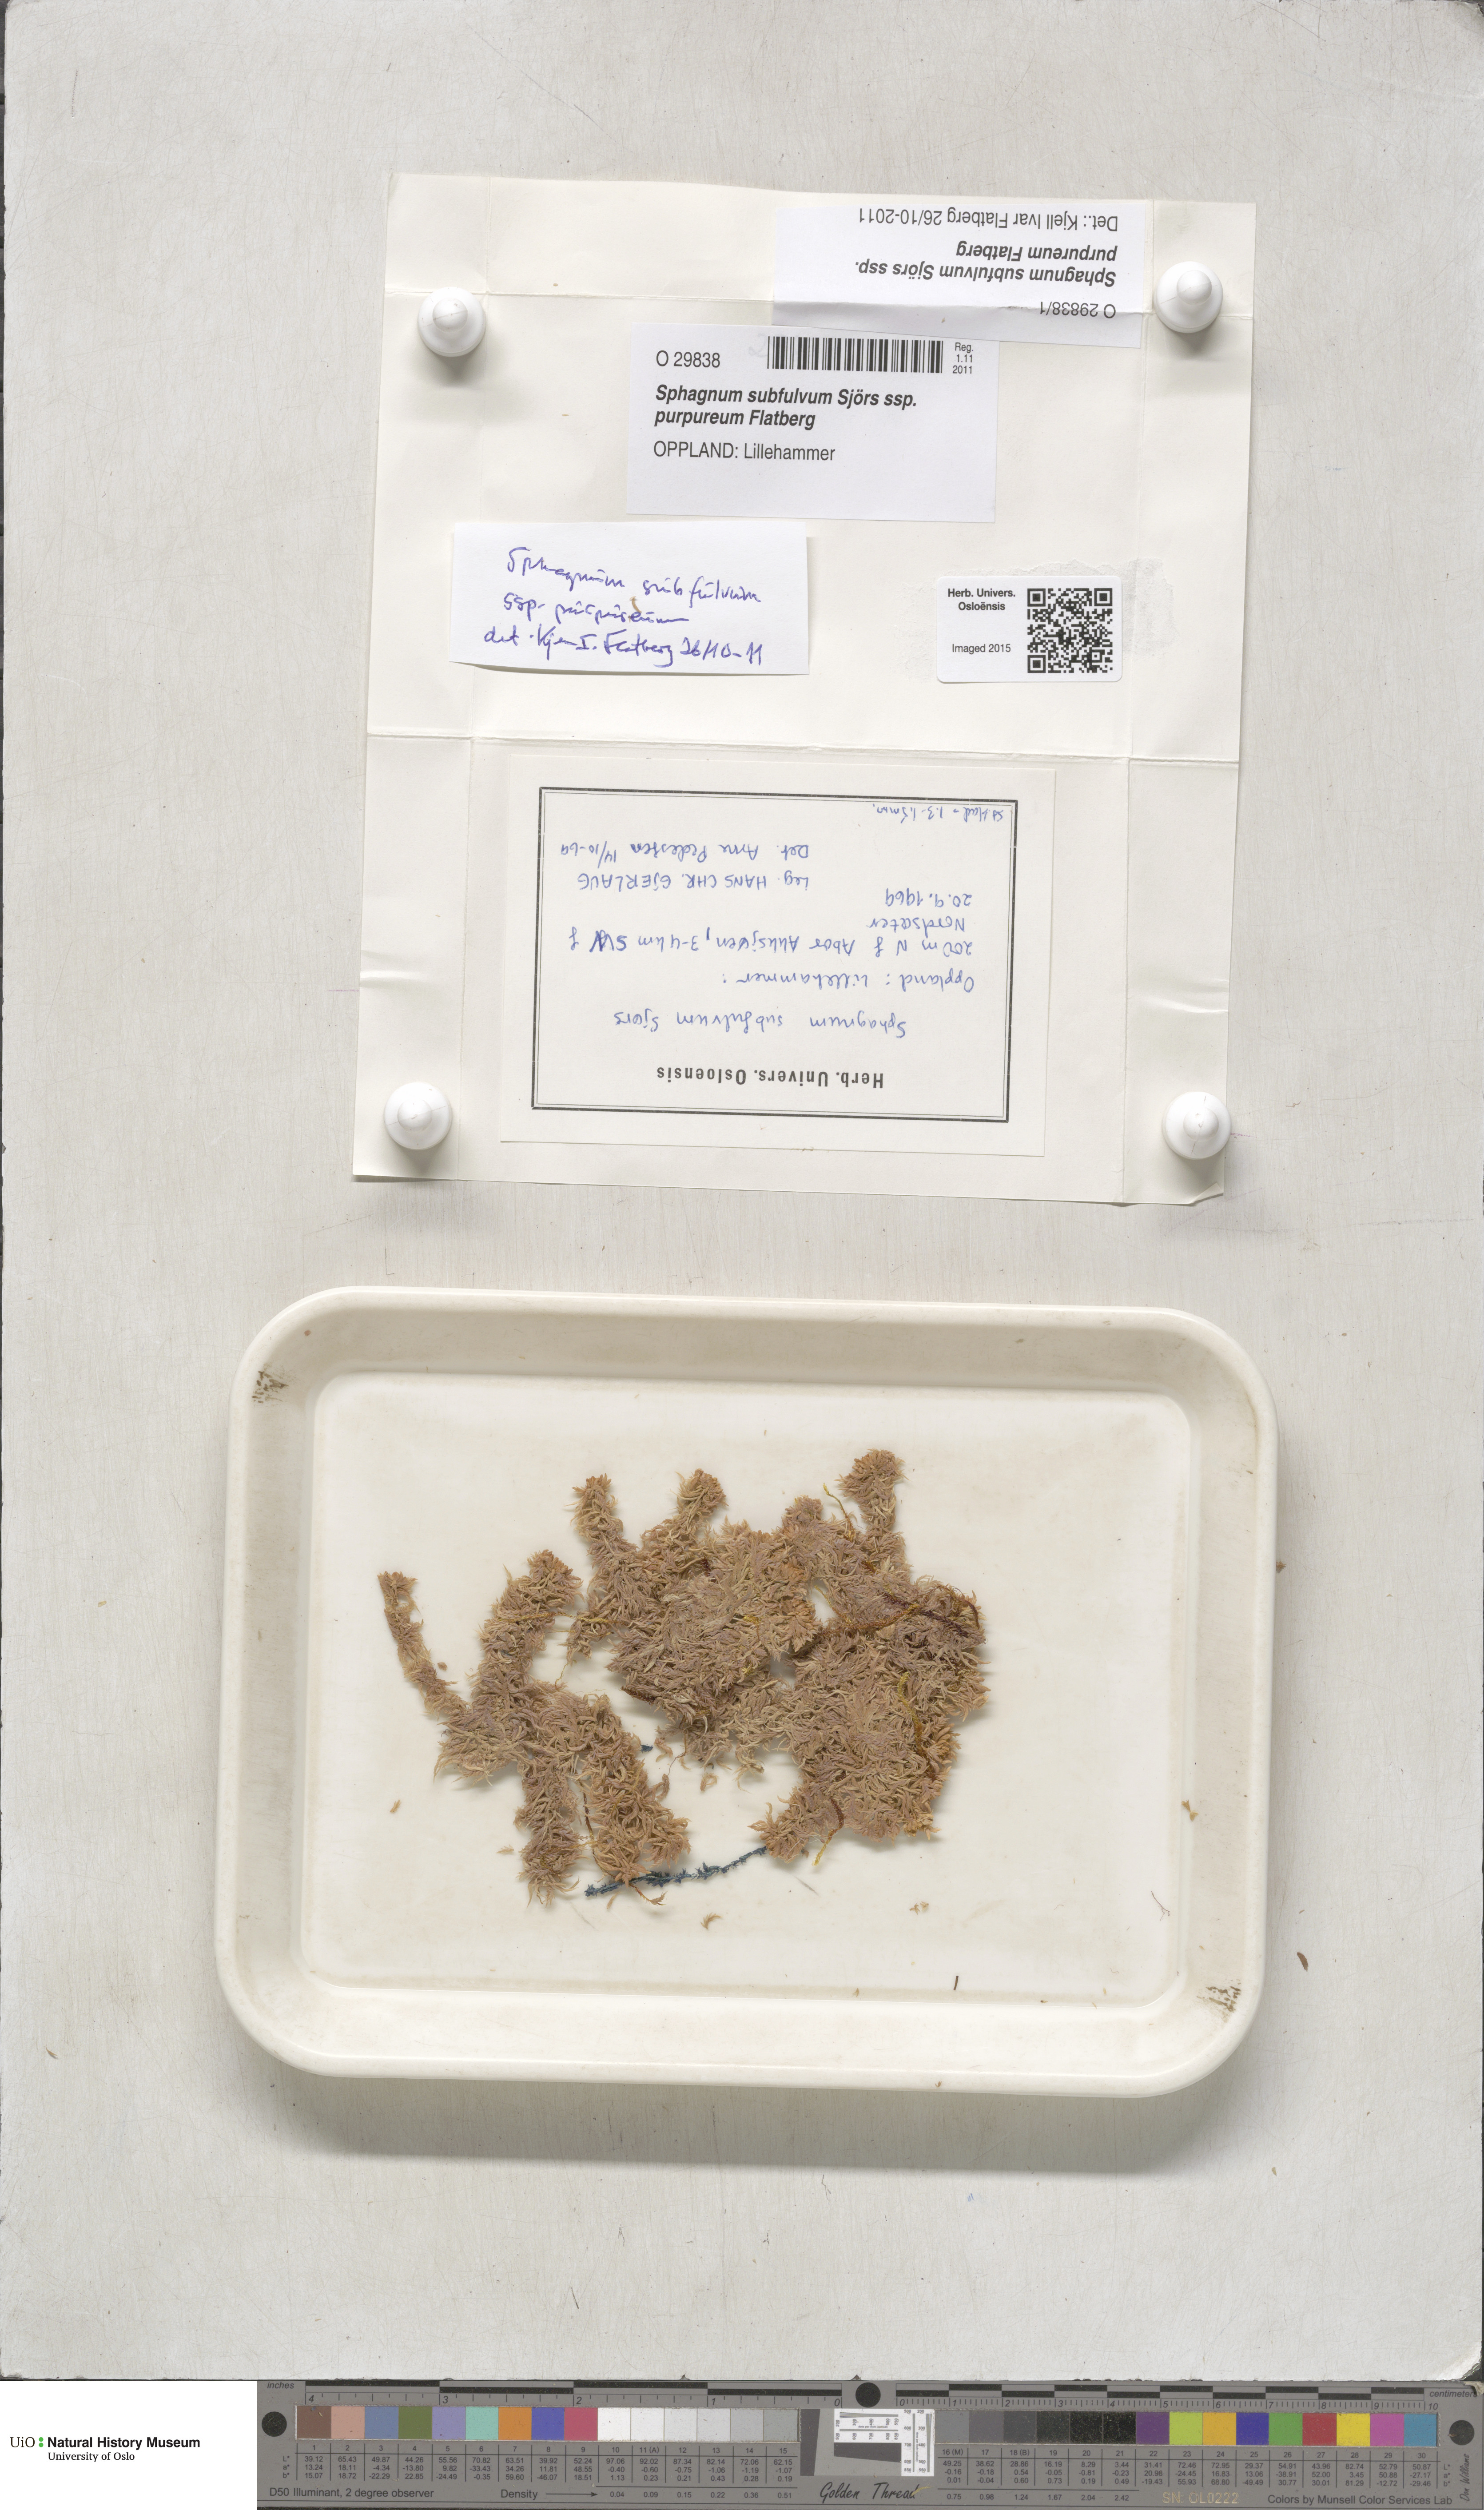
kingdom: Plantae
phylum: Bryophyta
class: Sphagnopsida
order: Sphagnales
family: Sphagnaceae
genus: Sphagnum
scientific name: Sphagnum subfulvum
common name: Fulvous peat moss
